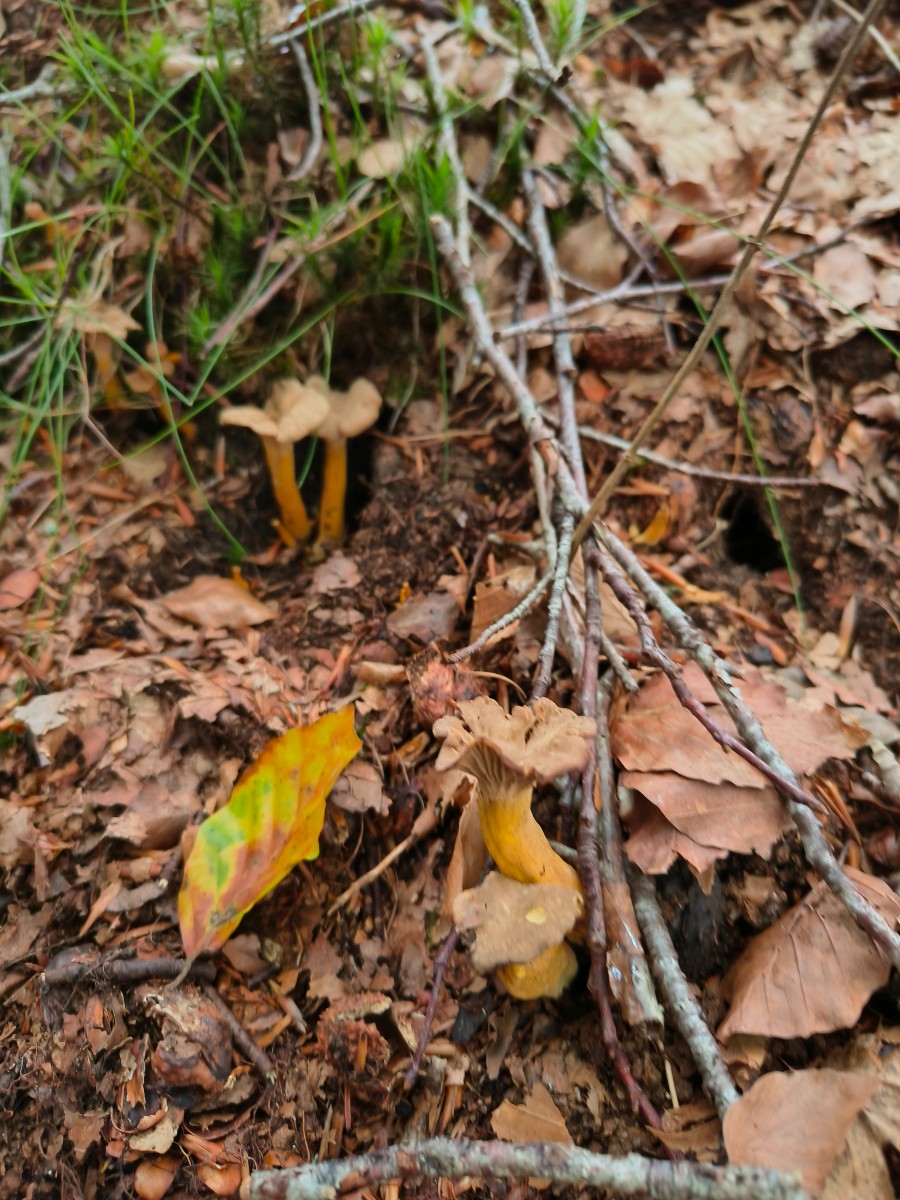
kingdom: Fungi
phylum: Basidiomycota
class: Agaricomycetes
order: Cantharellales
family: Hydnaceae
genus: Craterellus
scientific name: Craterellus tubaeformis
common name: tragt-kantarel
